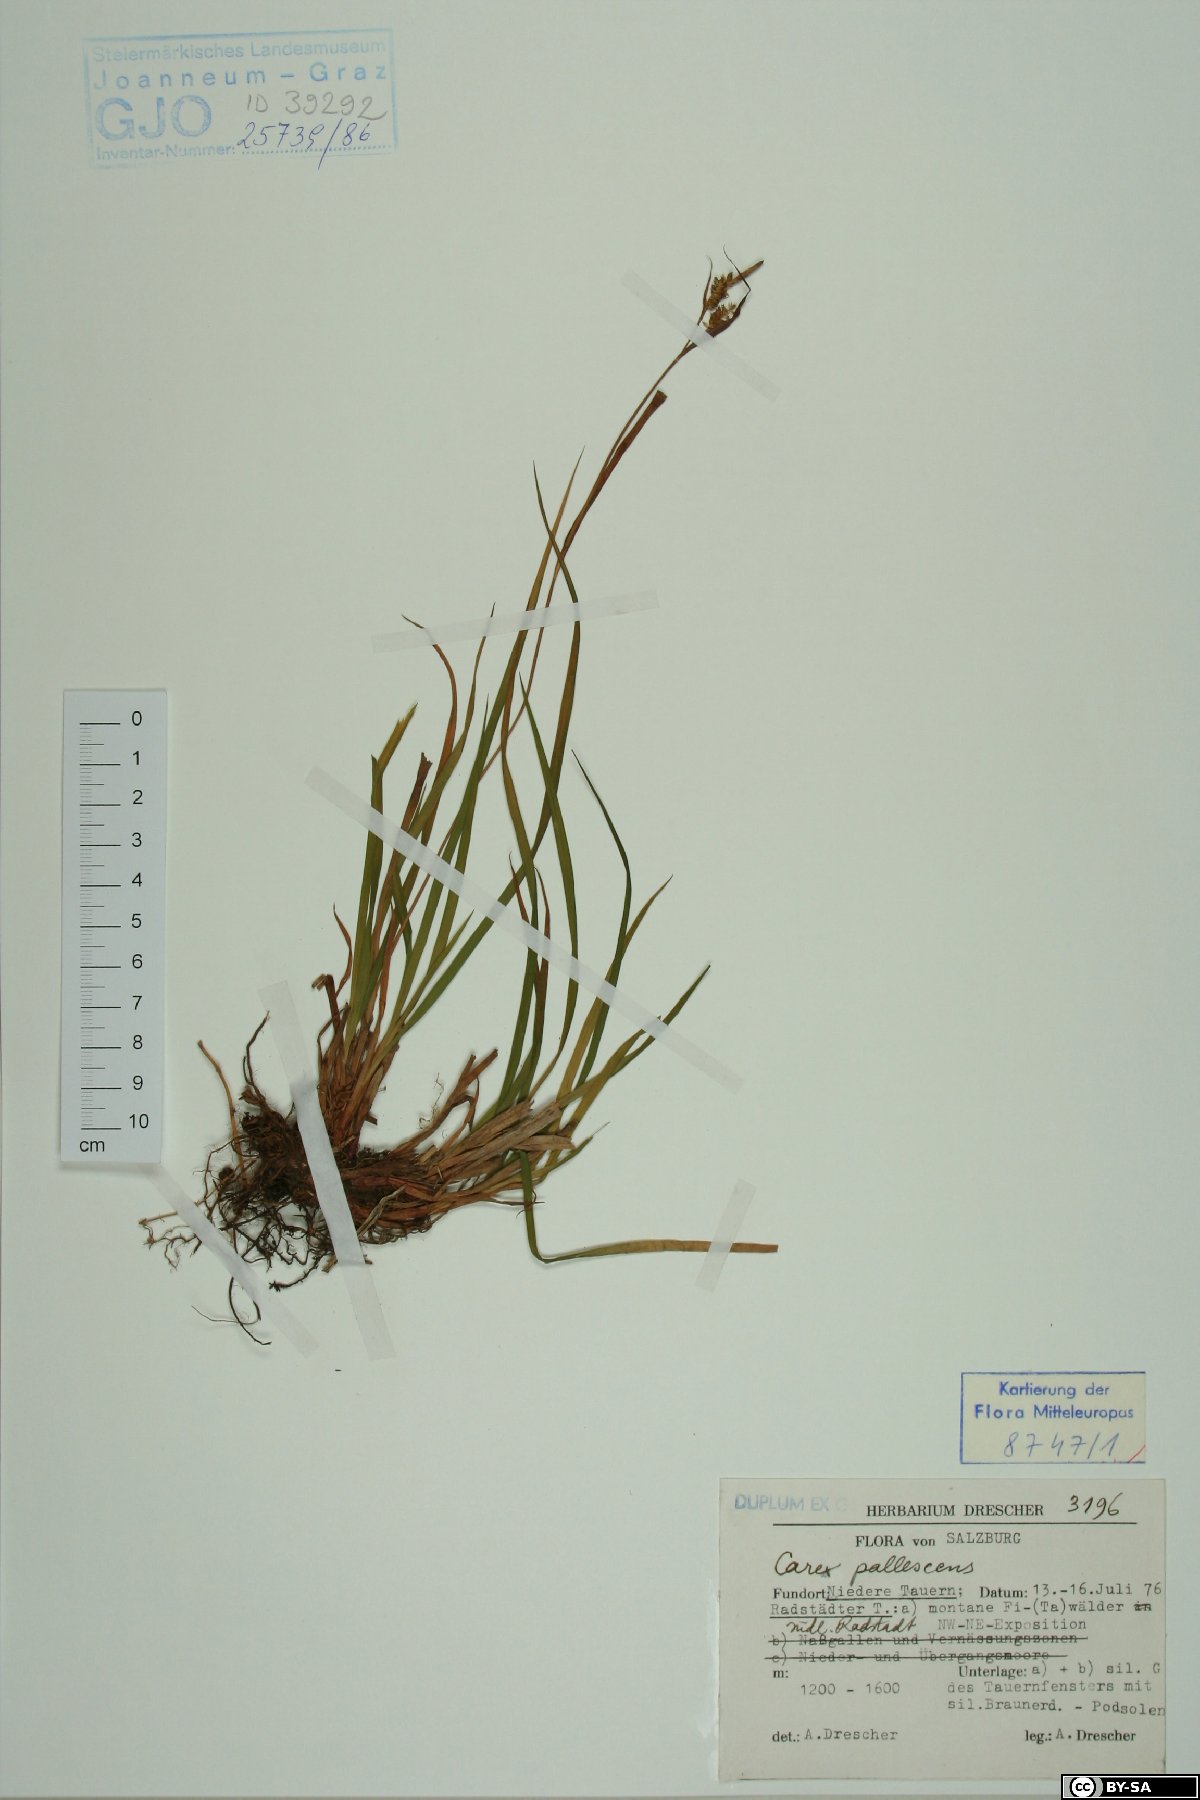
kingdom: Plantae
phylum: Tracheophyta
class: Liliopsida
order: Poales
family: Cyperaceae
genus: Carex
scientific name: Carex pallescens
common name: Pale sedge
